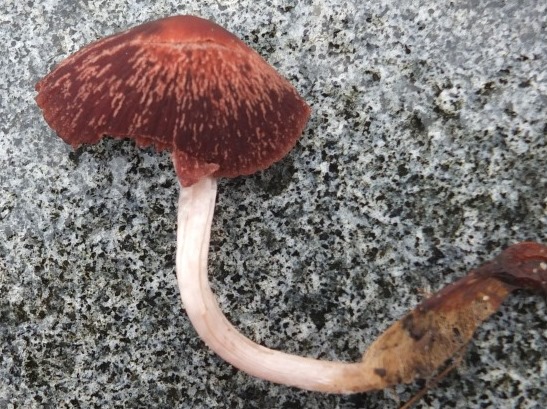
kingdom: Fungi
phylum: Basidiomycota
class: Agaricomycetes
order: Agaricales
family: Psathyrellaceae
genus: Psathyrella
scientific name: Psathyrella bipellis
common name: vinrød mørkhat
